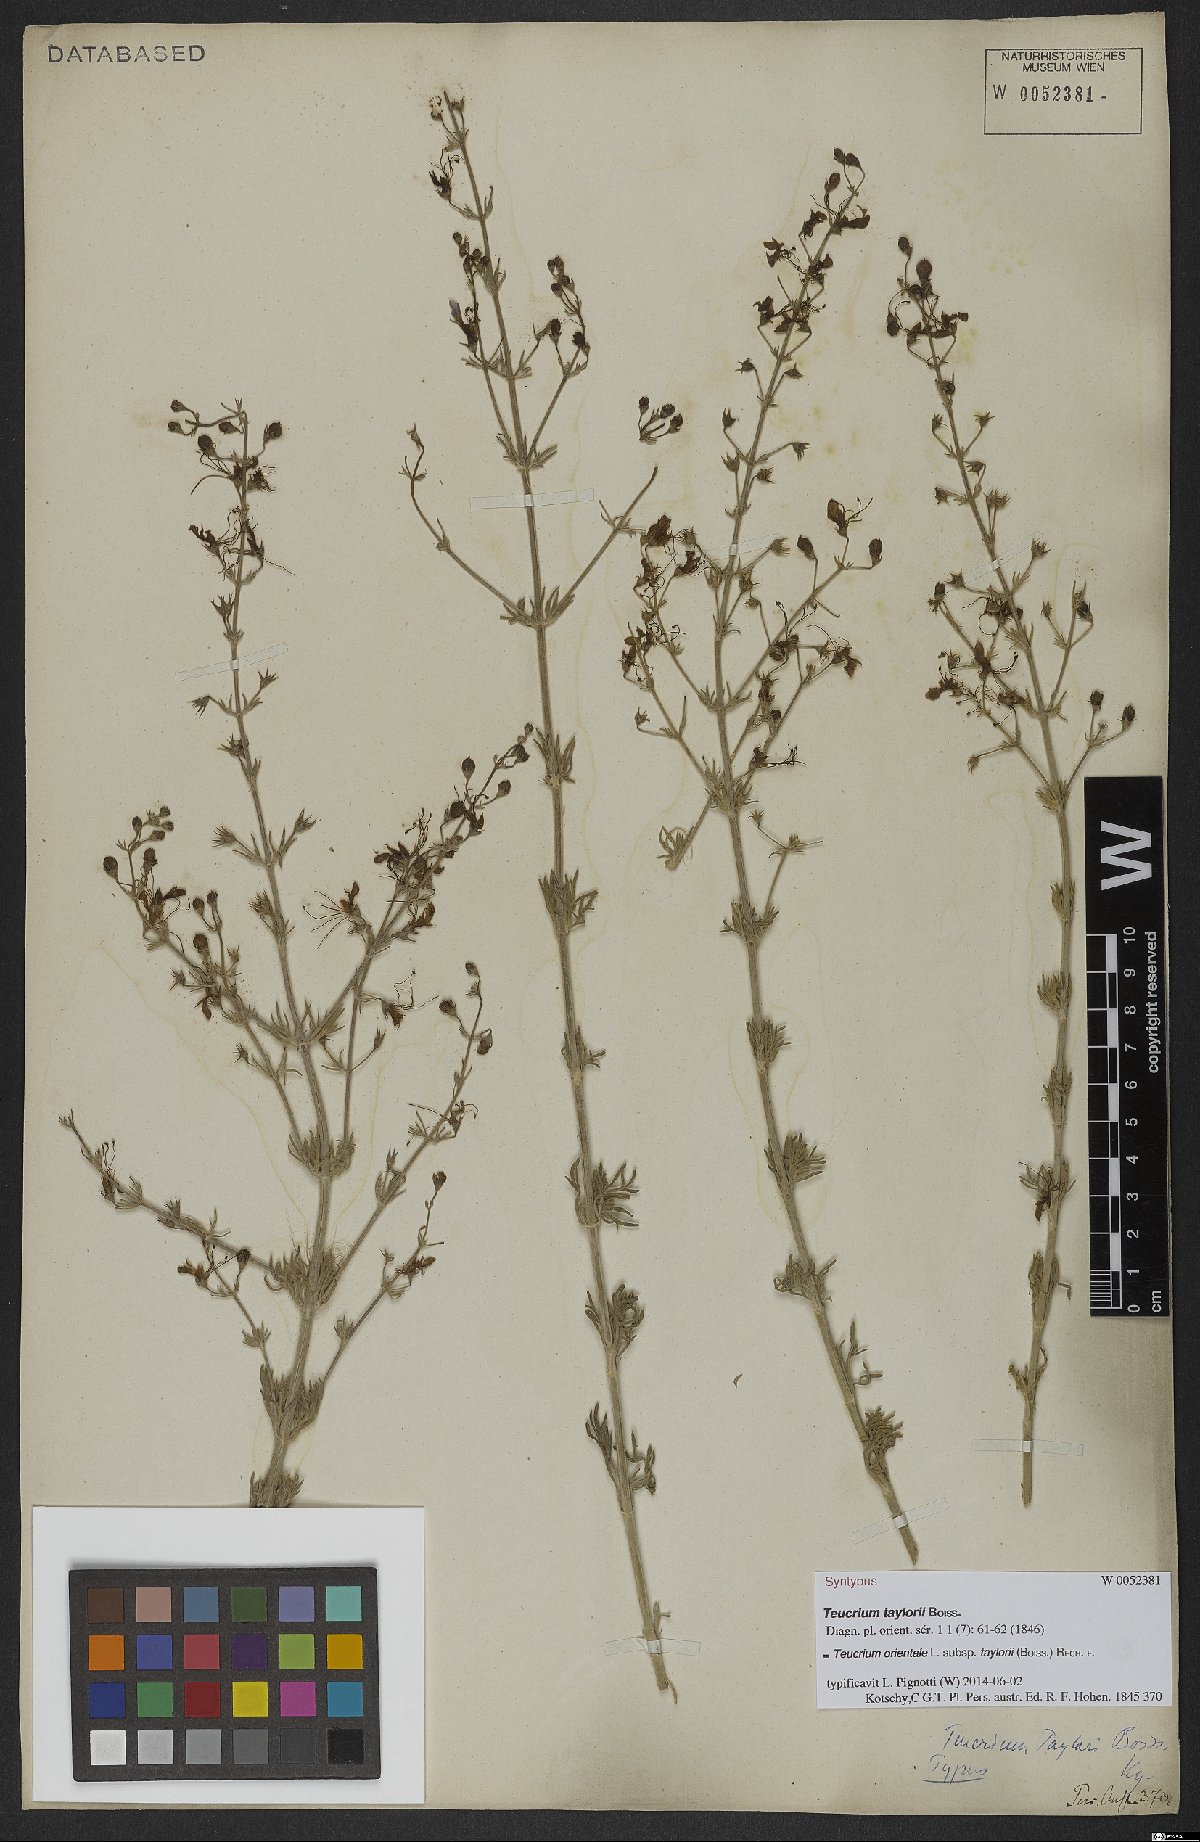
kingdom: Plantae
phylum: Tracheophyta
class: Magnoliopsida
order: Lamiales
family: Lamiaceae
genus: Teucrium
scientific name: Teucrium orientale
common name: Oriental germander
